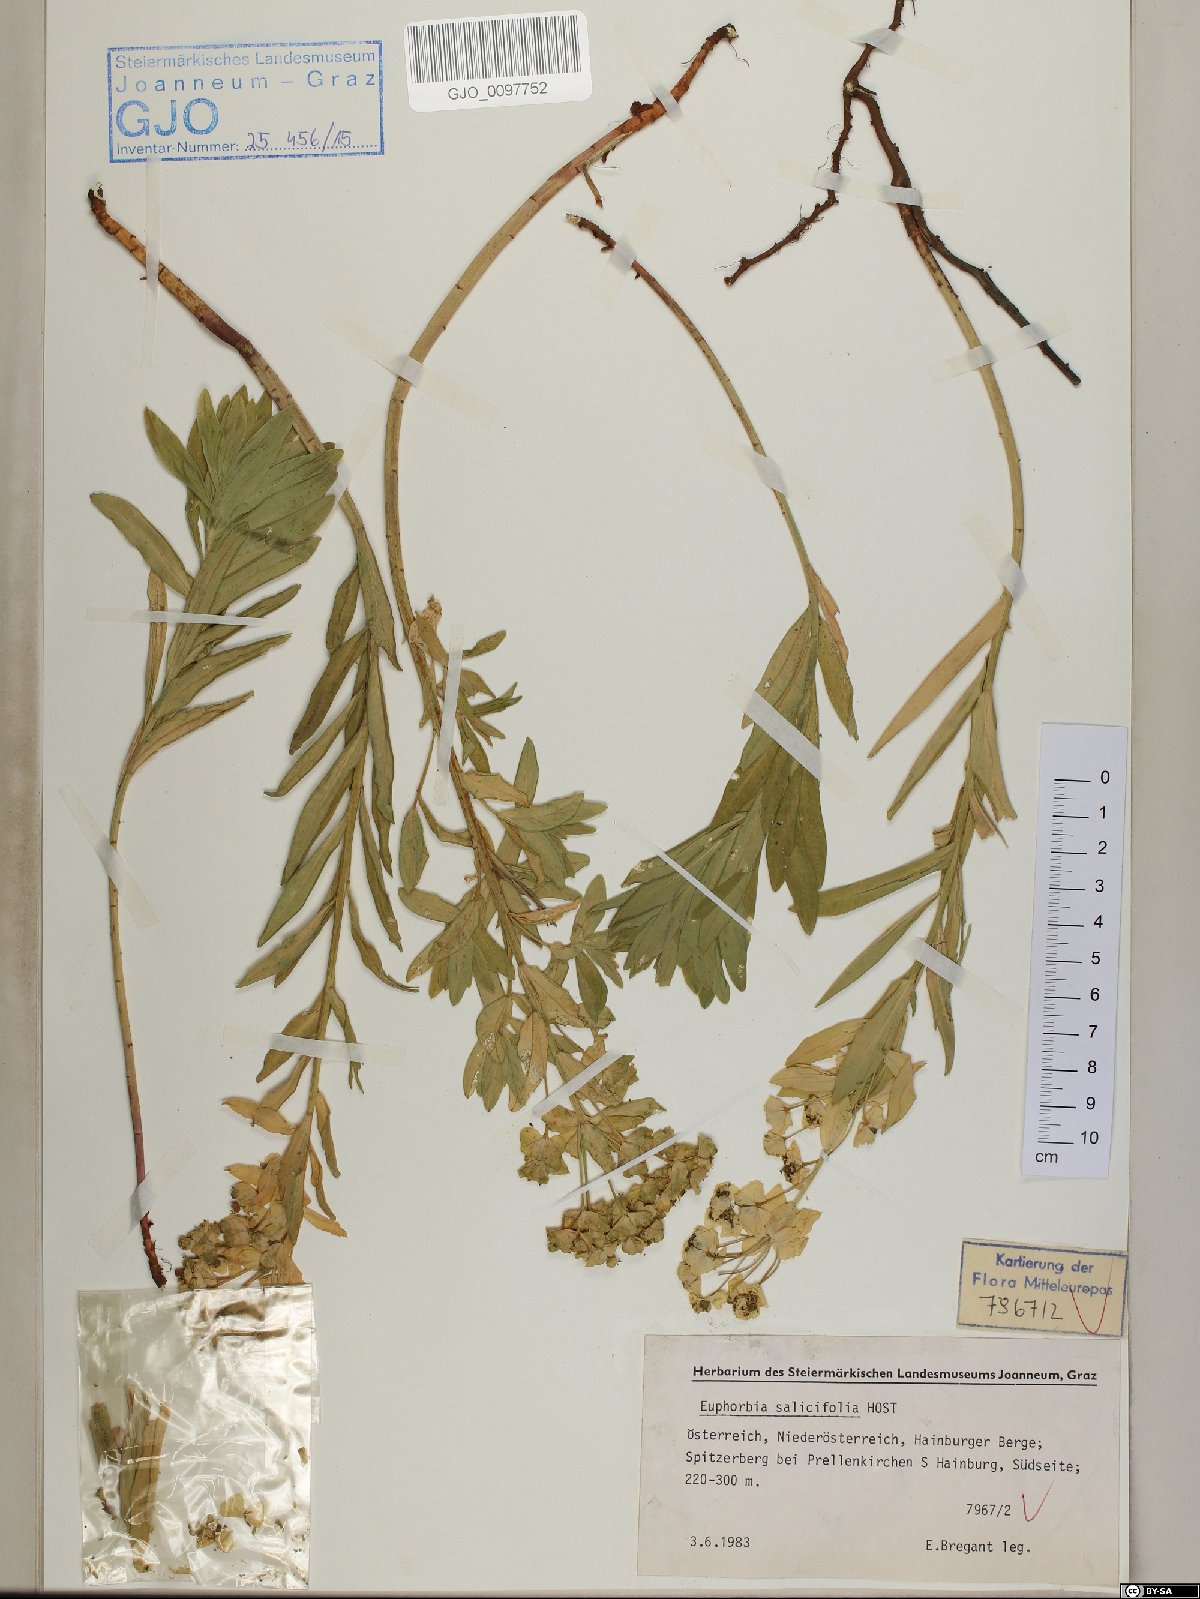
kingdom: Plantae
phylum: Tracheophyta
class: Magnoliopsida
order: Malpighiales
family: Euphorbiaceae
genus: Euphorbia
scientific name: Euphorbia salicifolia
